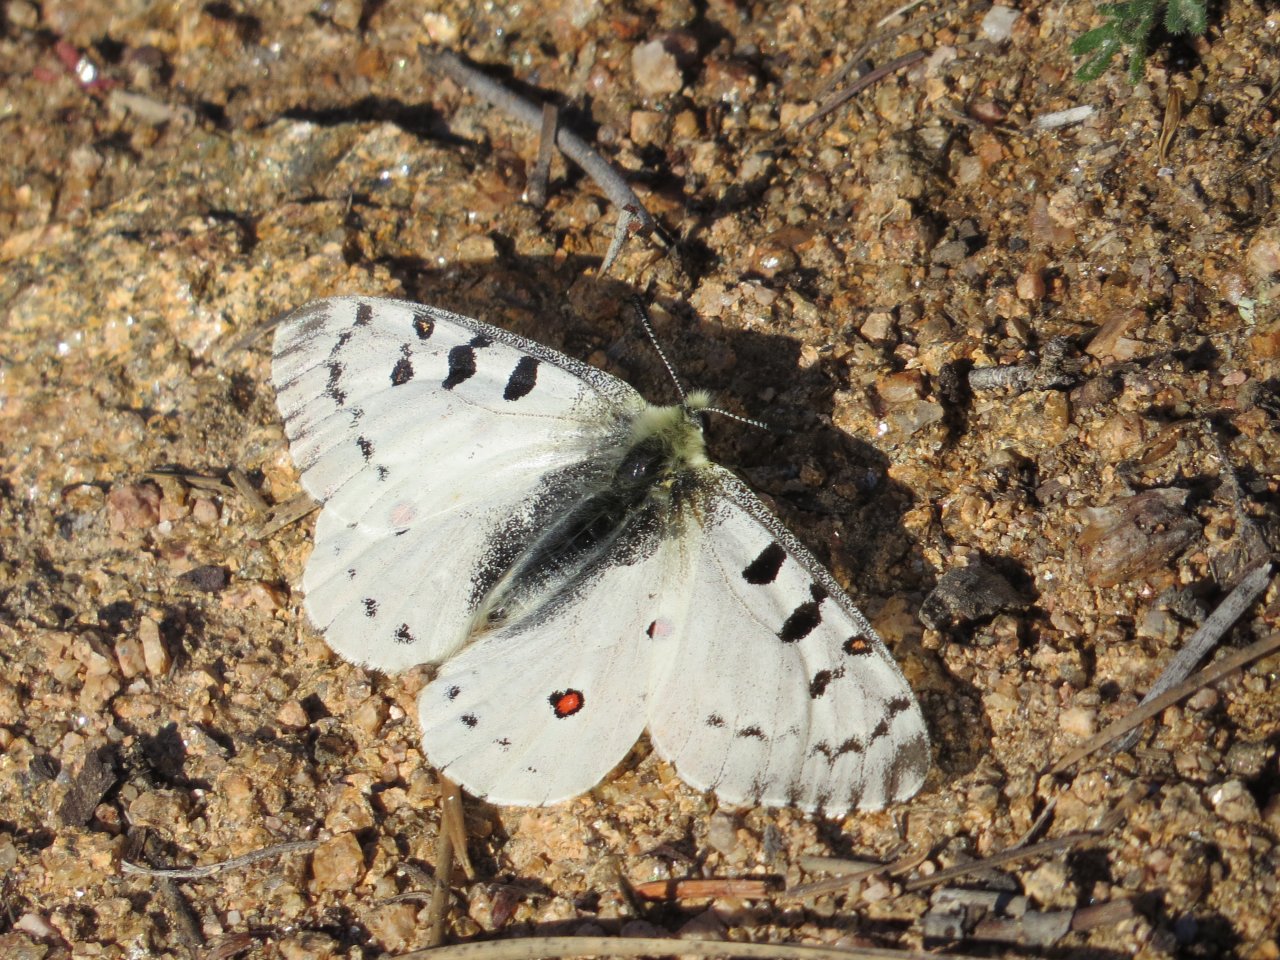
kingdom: Animalia
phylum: Arthropoda
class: Insecta
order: Lepidoptera
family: Papilionidae
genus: Parnassius
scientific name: Parnassius smintheus
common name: Rocky Mountain Parnassian
